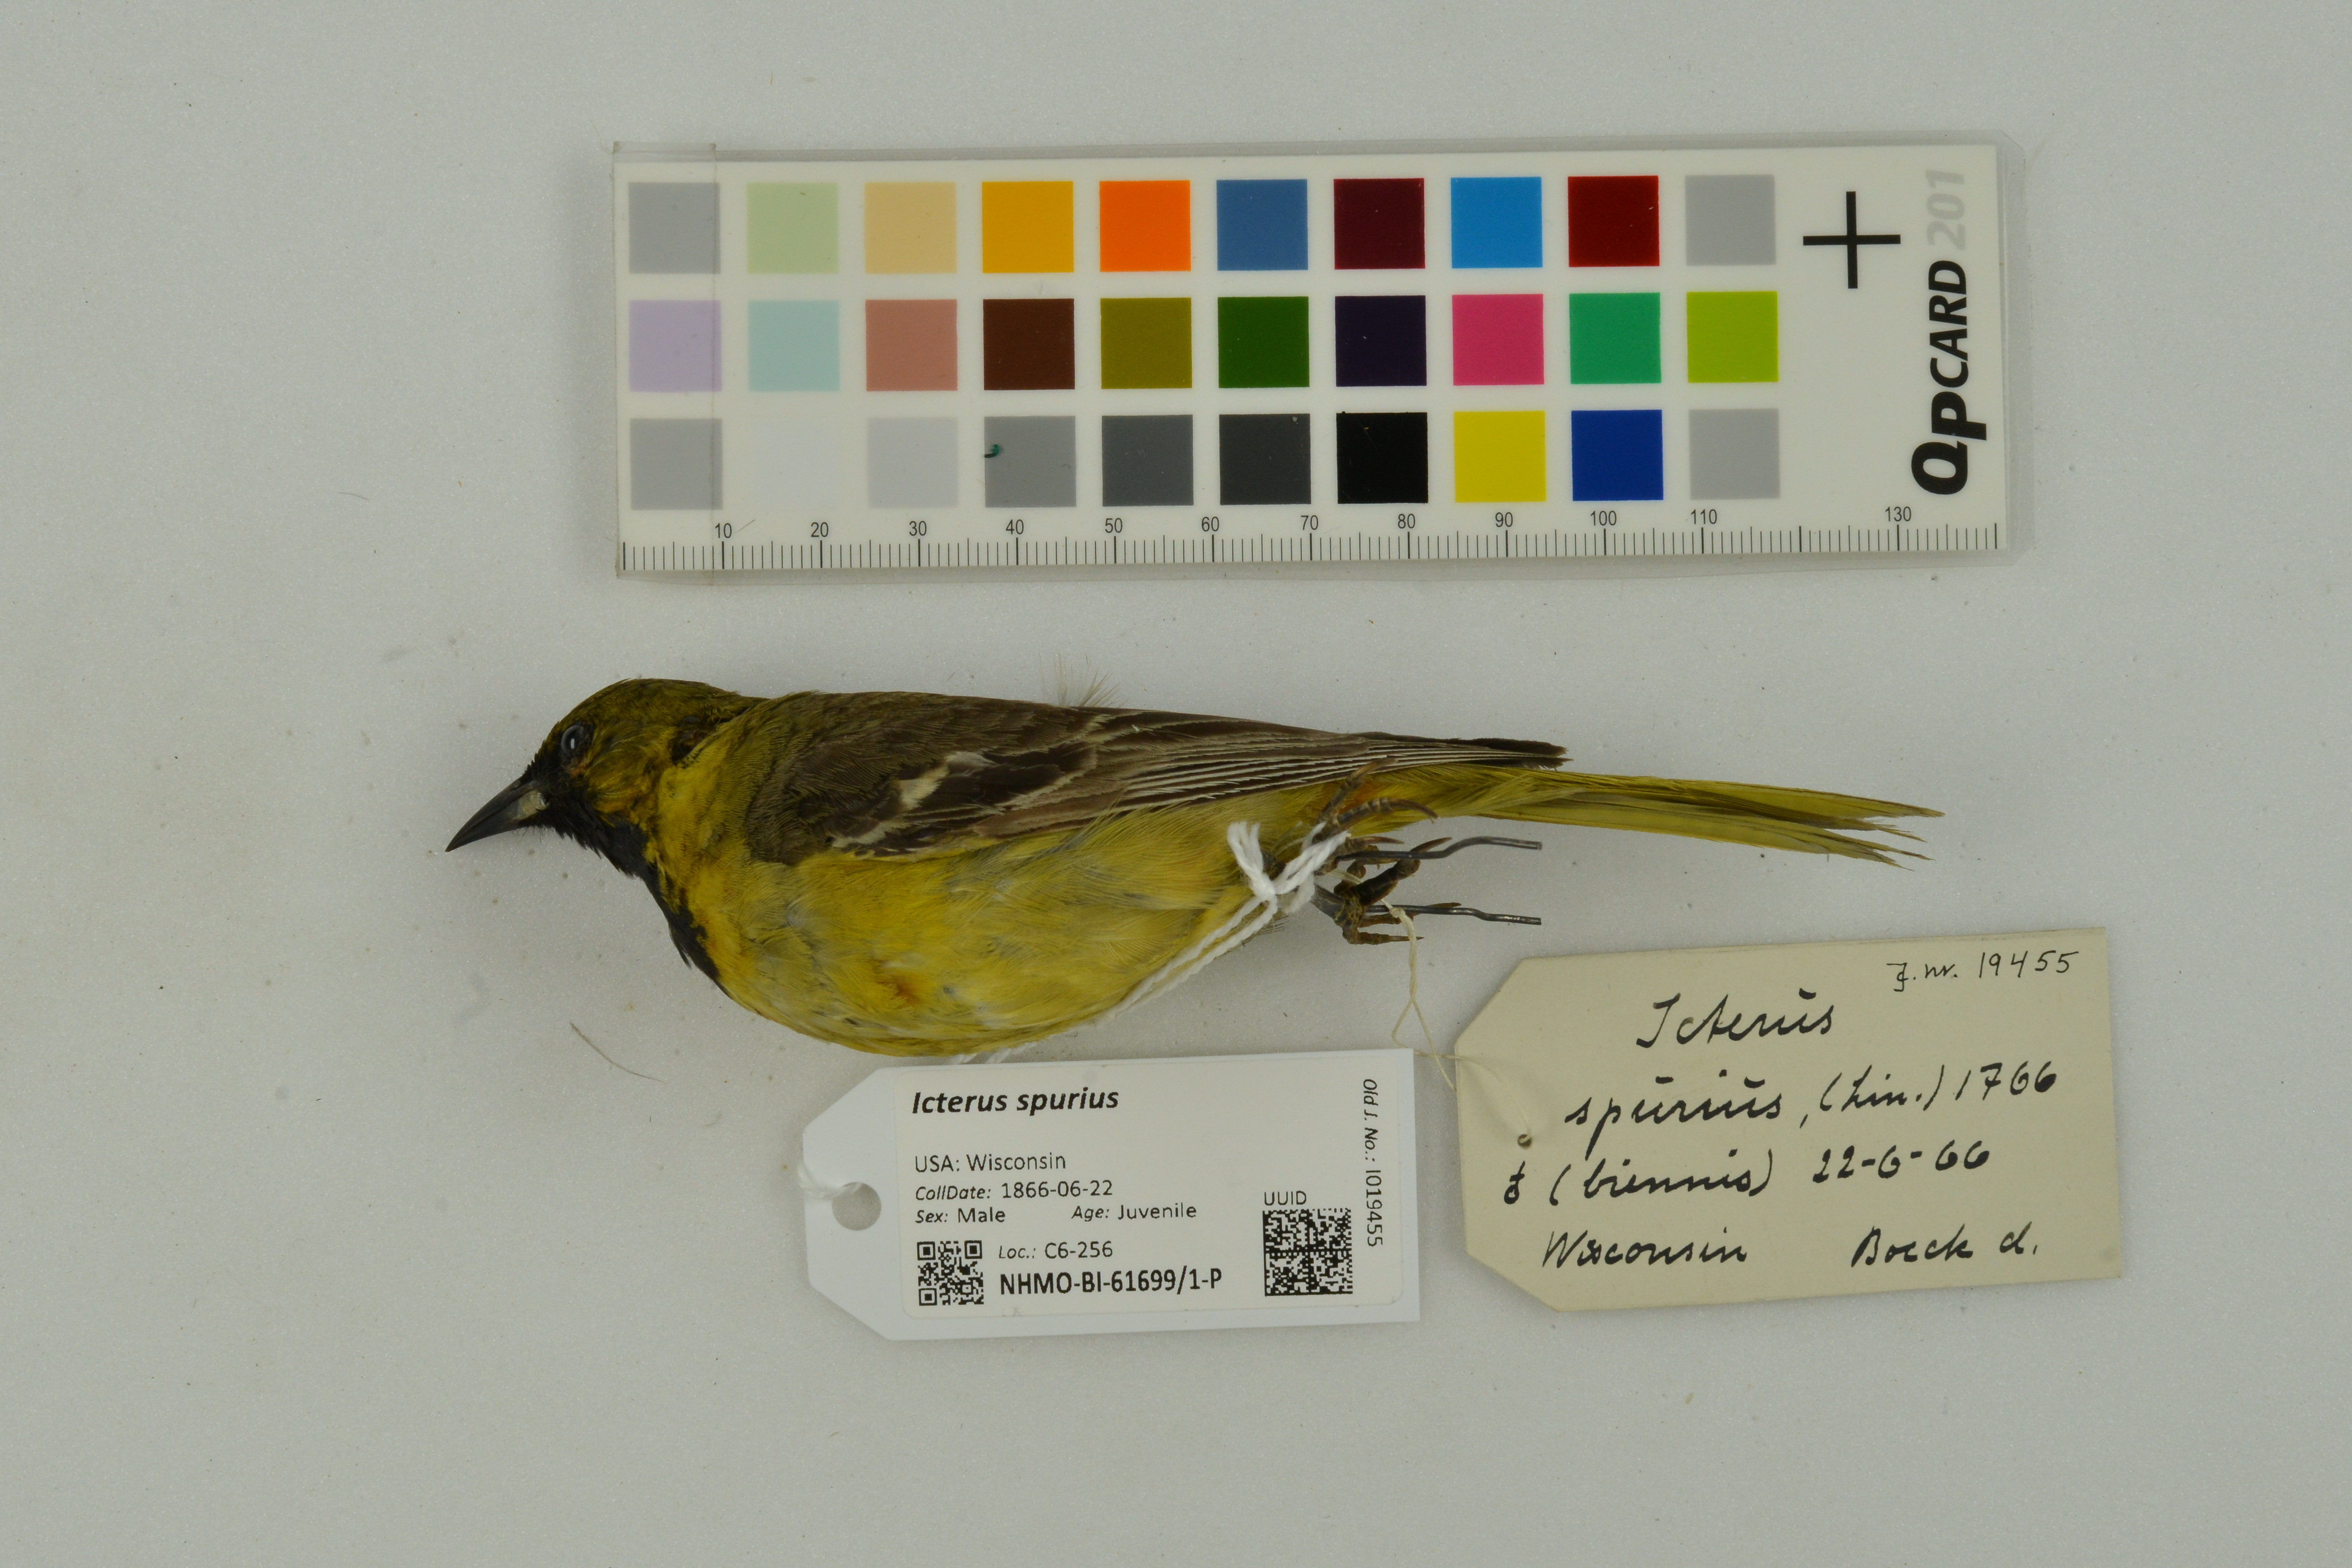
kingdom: Animalia
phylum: Chordata
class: Aves
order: Passeriformes
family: Icteridae
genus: Icterus
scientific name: Icterus spurius
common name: Orchard oriole
